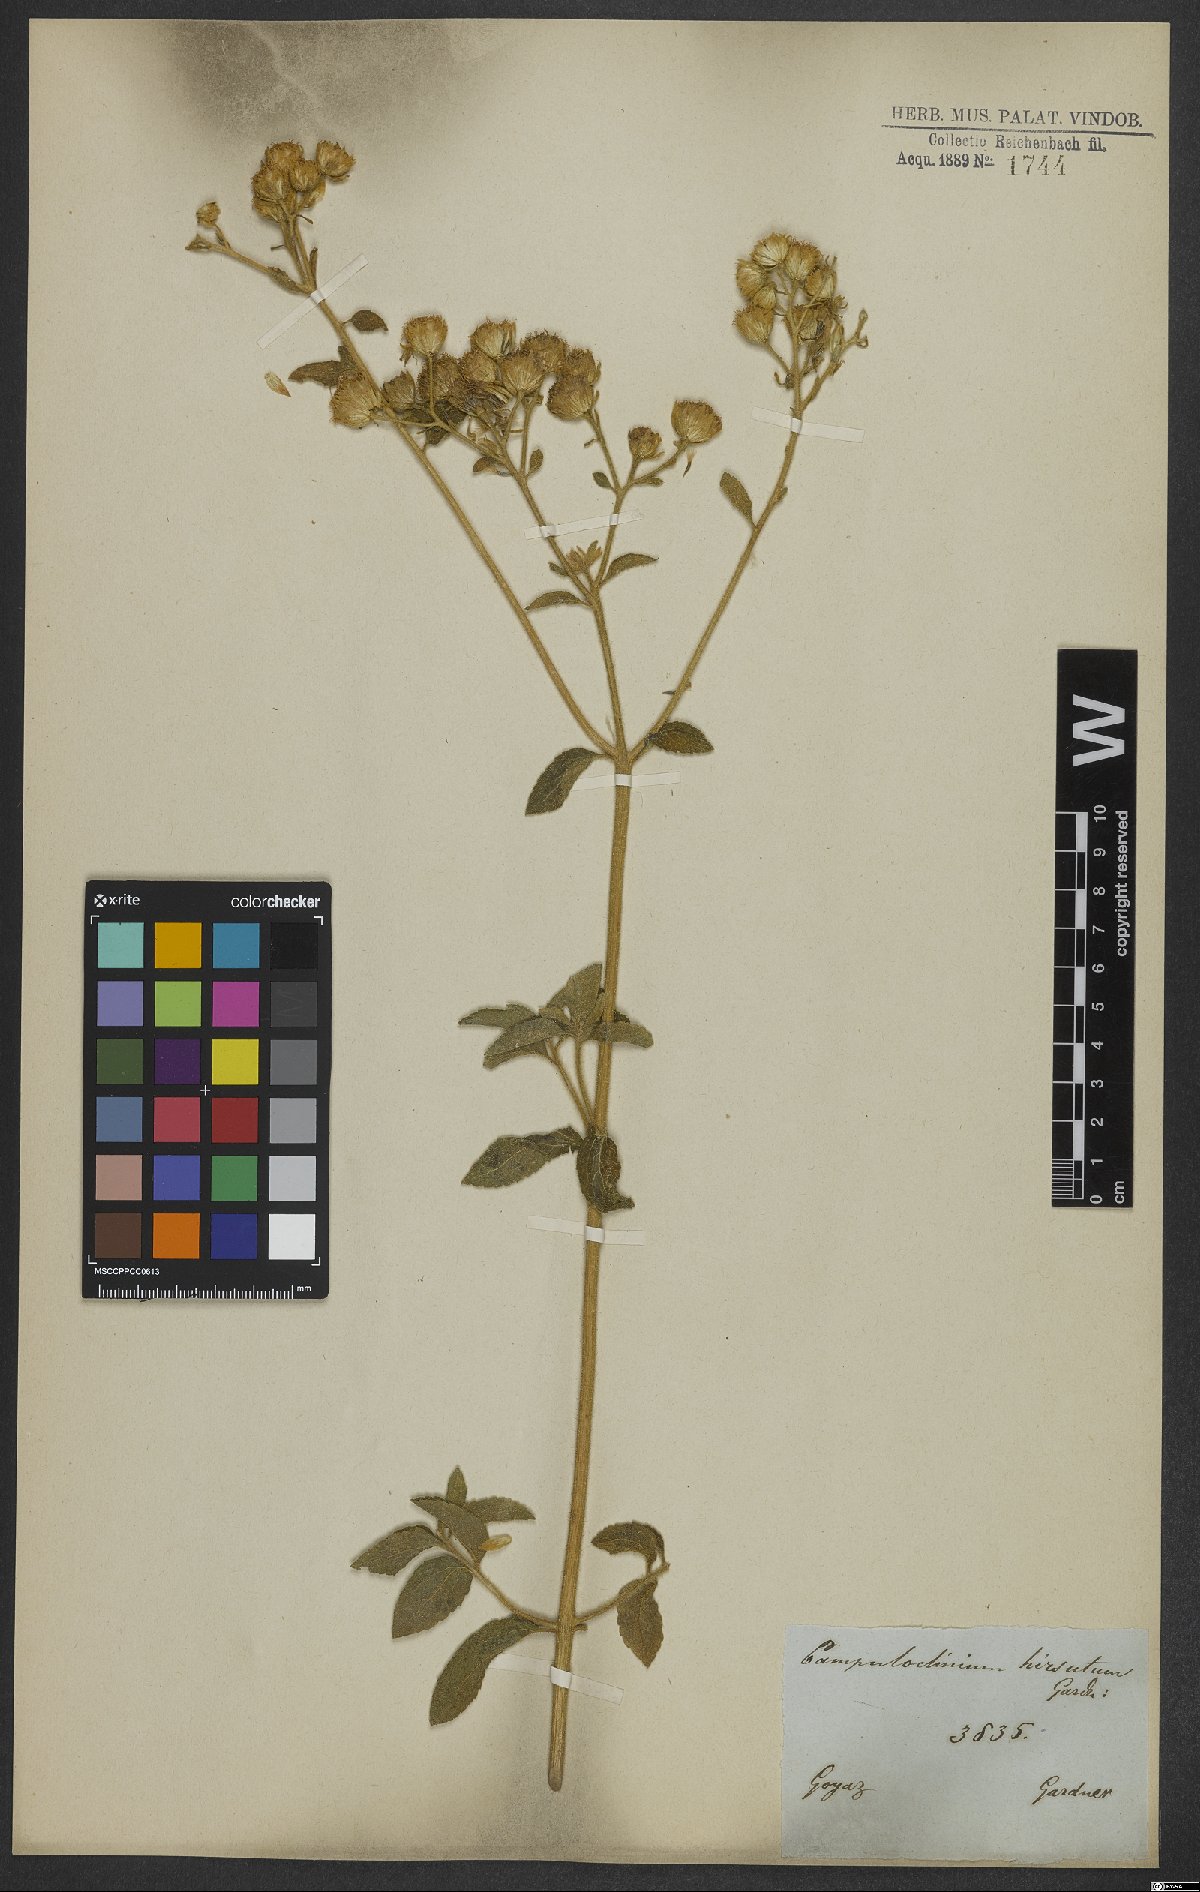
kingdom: Plantae
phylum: Tracheophyta
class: Magnoliopsida
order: Asterales
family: Asteraceae
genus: Campuloclinium
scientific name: Campuloclinium hirsutum
